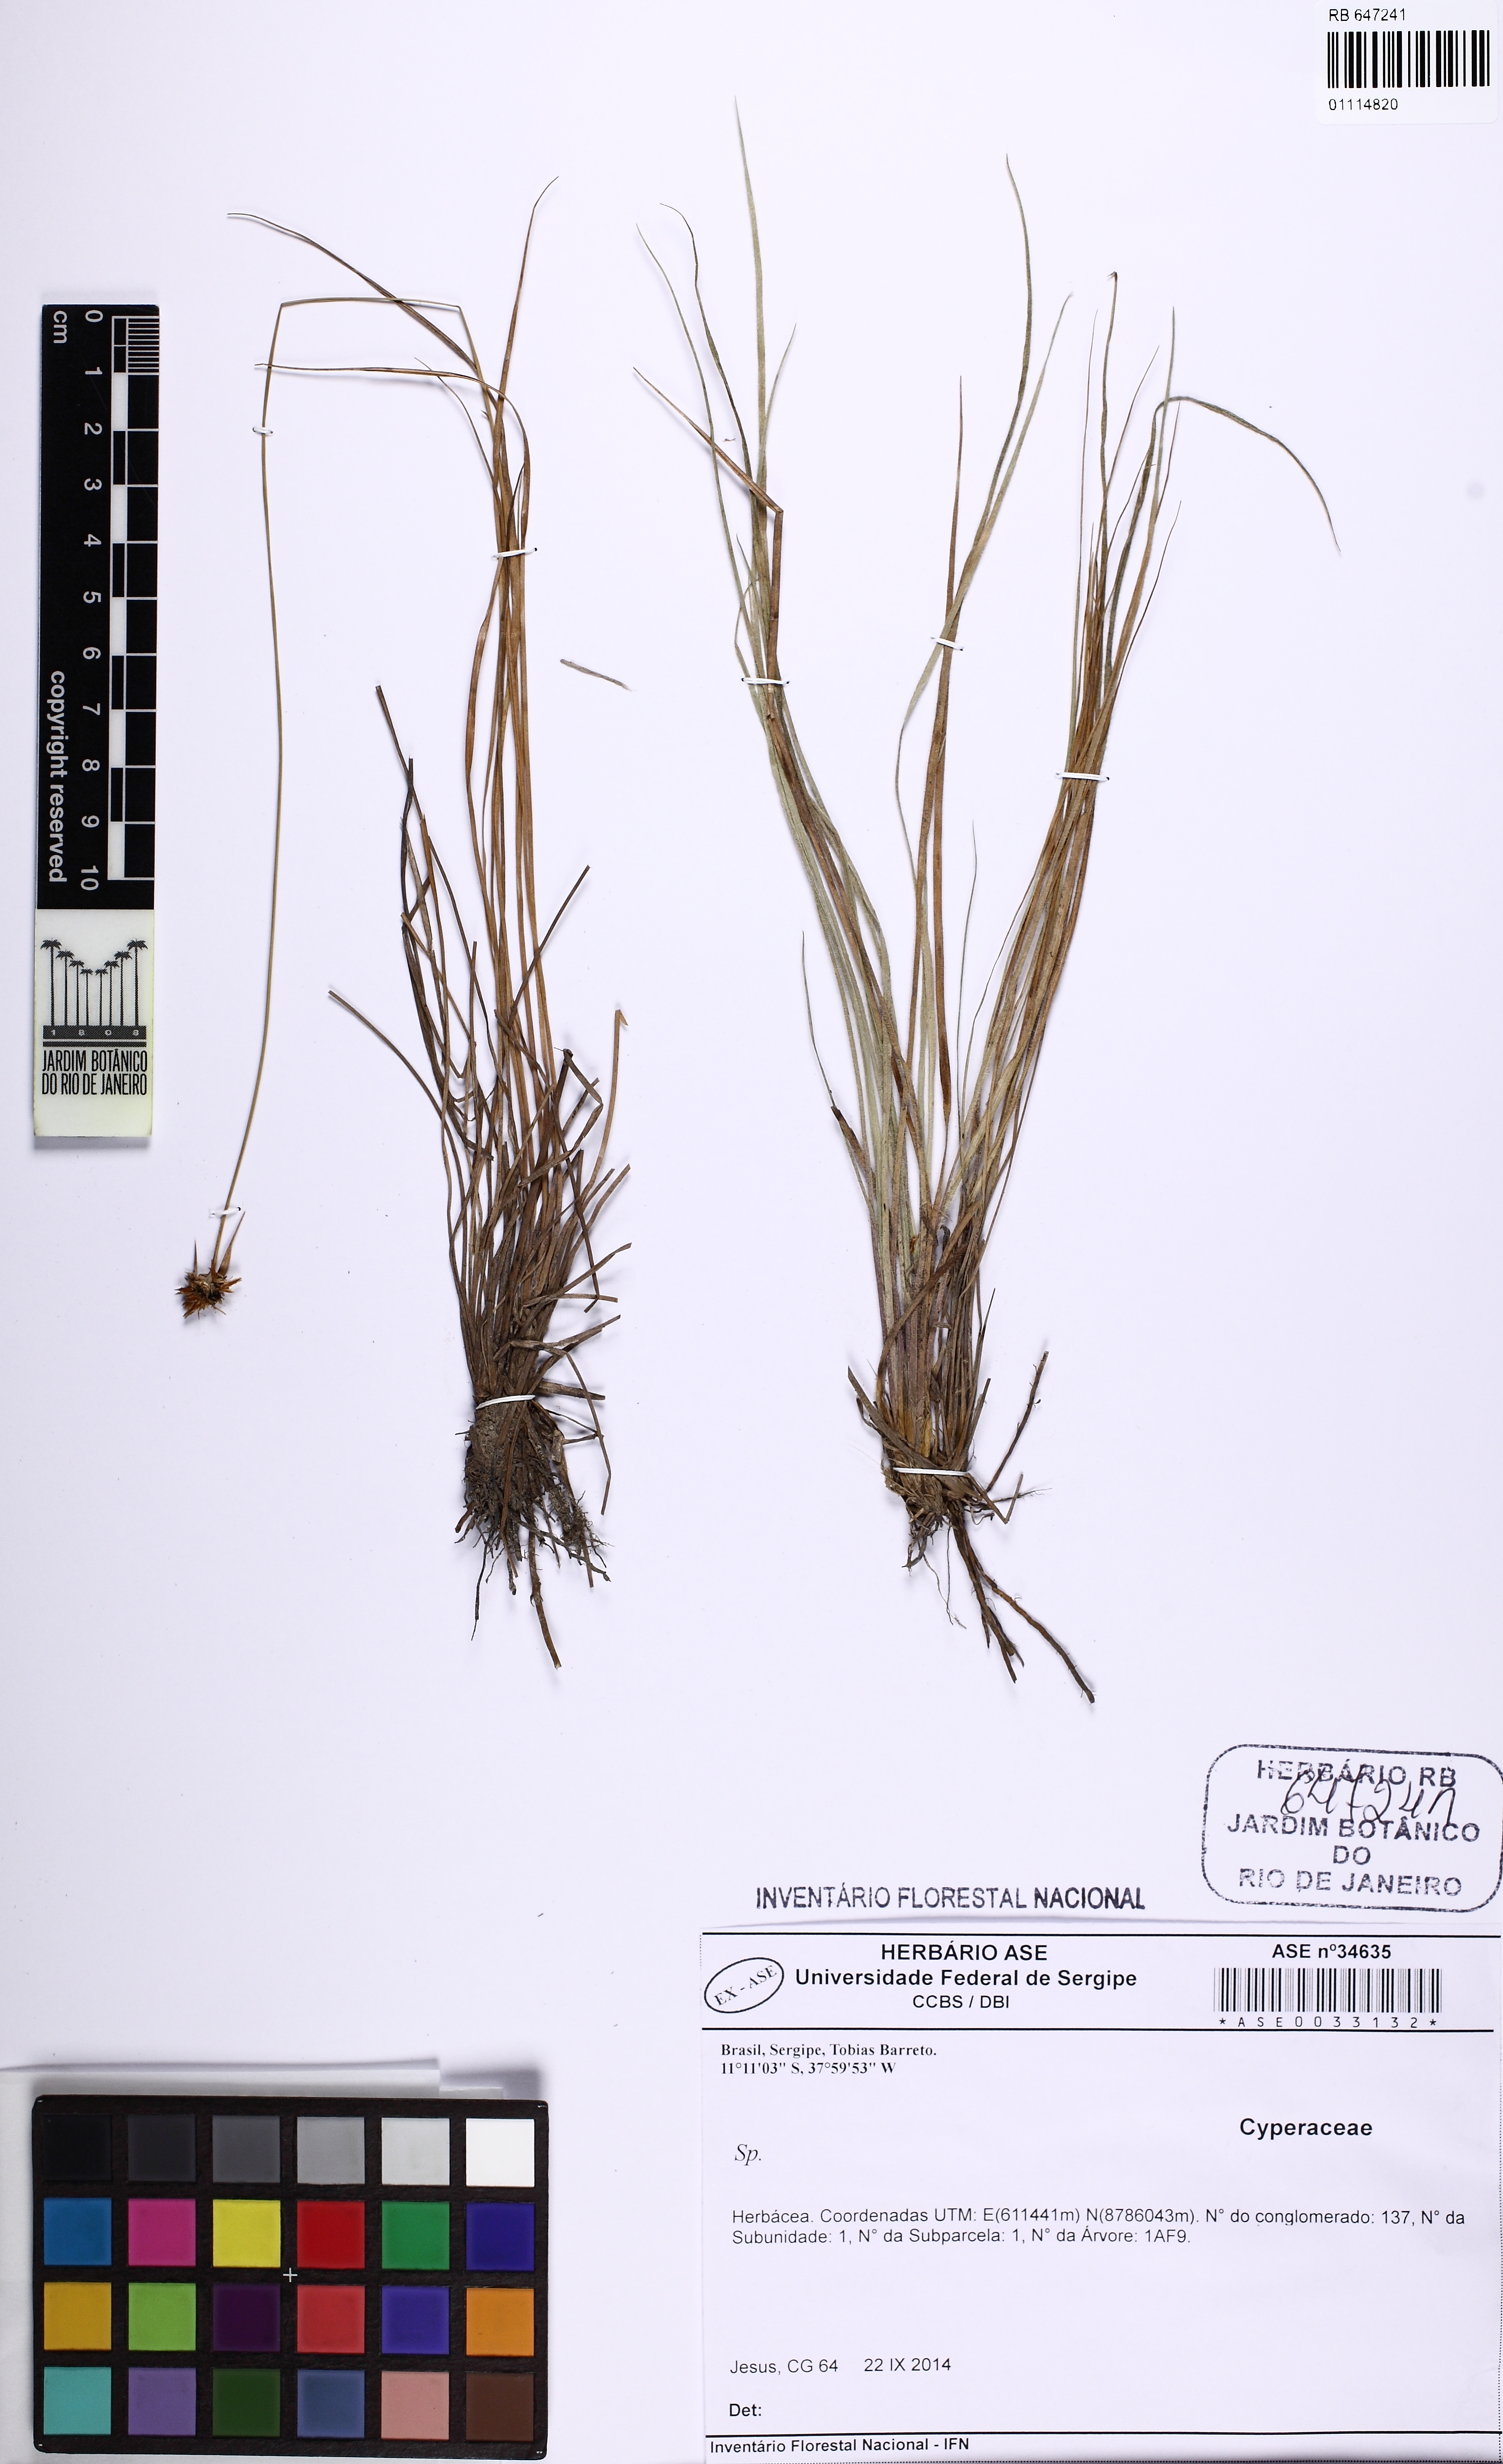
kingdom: Plantae
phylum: Tracheophyta
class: Liliopsida
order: Poales
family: Cyperaceae
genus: Rhynchospora
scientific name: Rhynchospora
